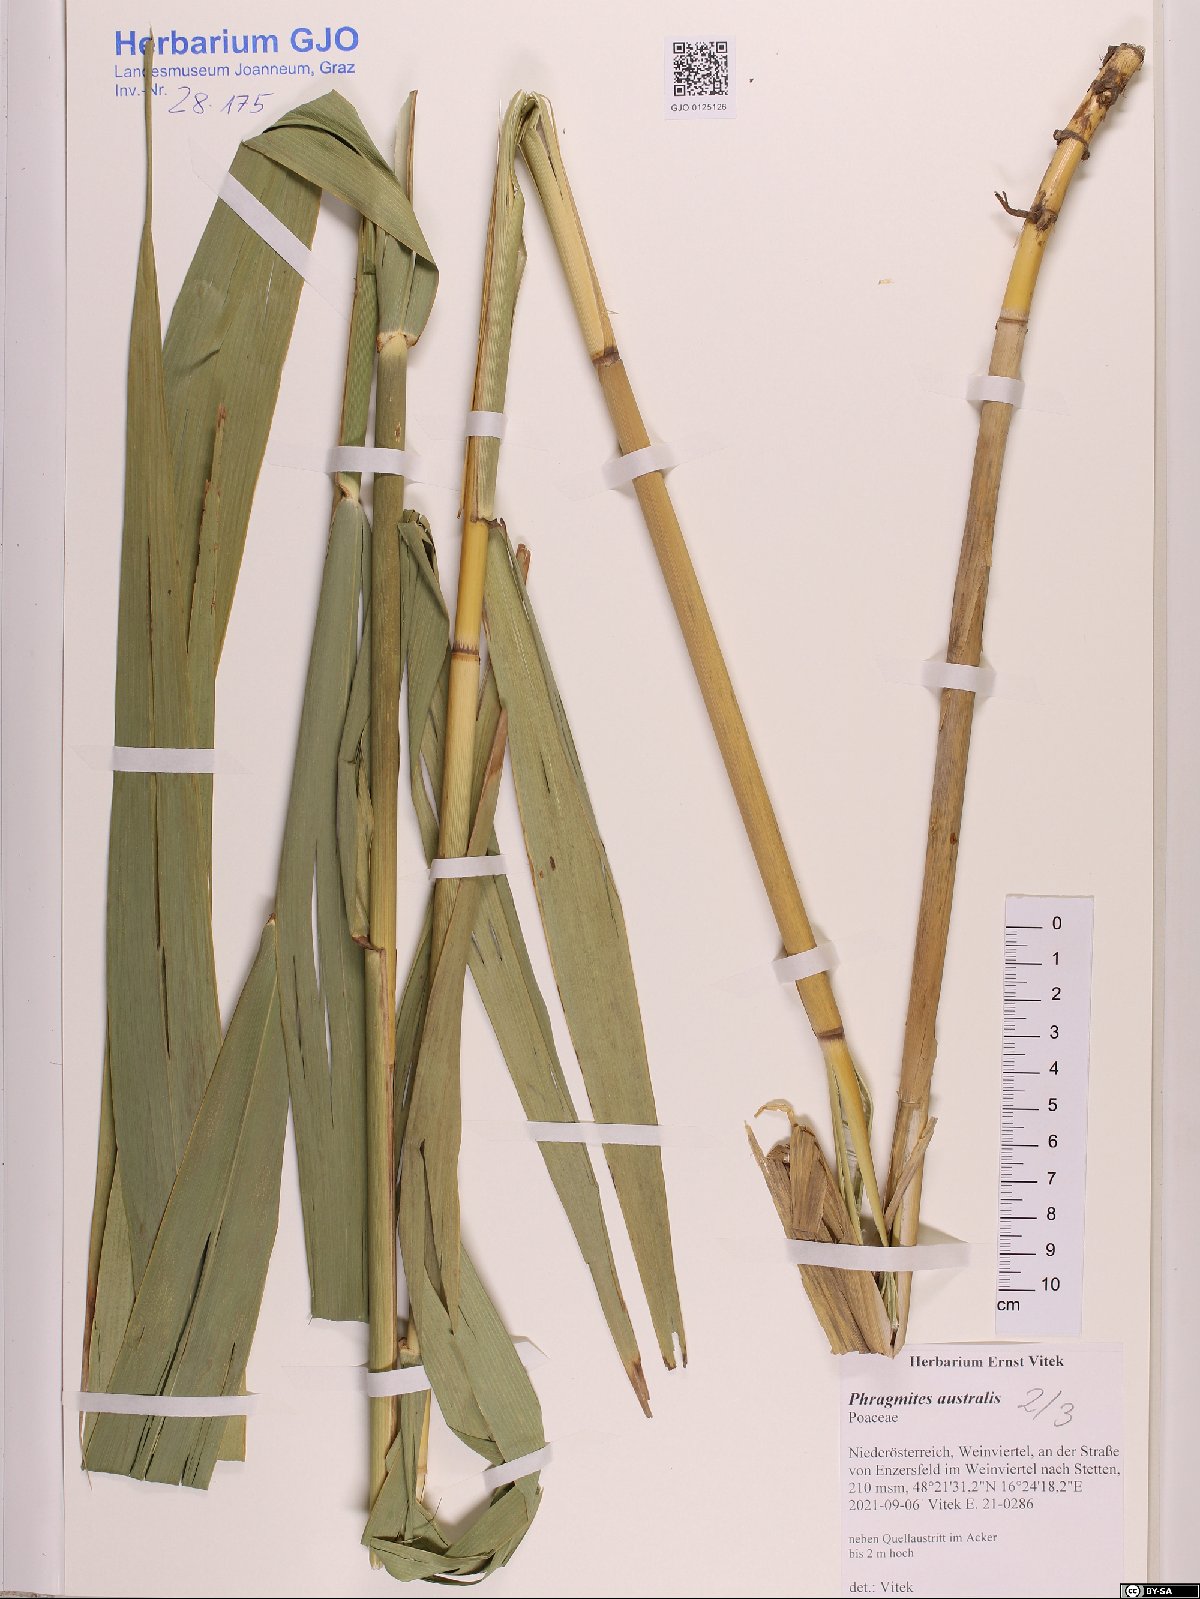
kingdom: Plantae
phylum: Tracheophyta
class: Liliopsida
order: Poales
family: Poaceae
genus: Phragmites
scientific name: Phragmites australis
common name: Common reed
